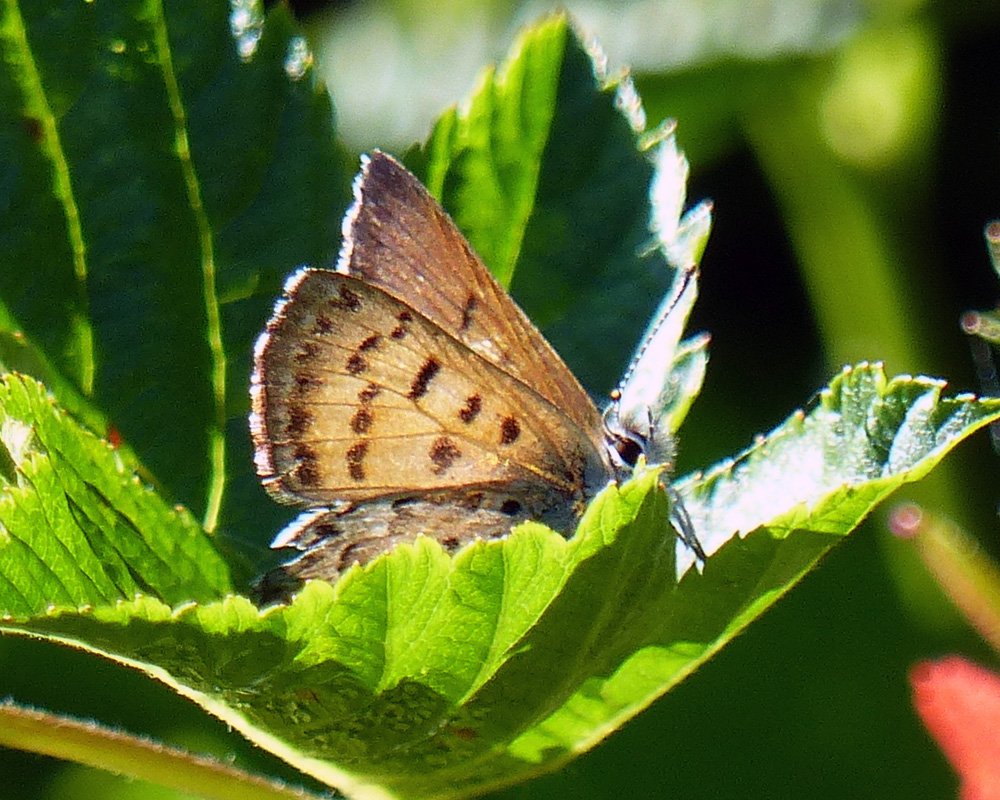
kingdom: Animalia
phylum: Arthropoda
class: Insecta
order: Lepidoptera
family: Lycaenidae
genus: Lycaena
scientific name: Lycaena mariposa
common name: Mariposa Copper
